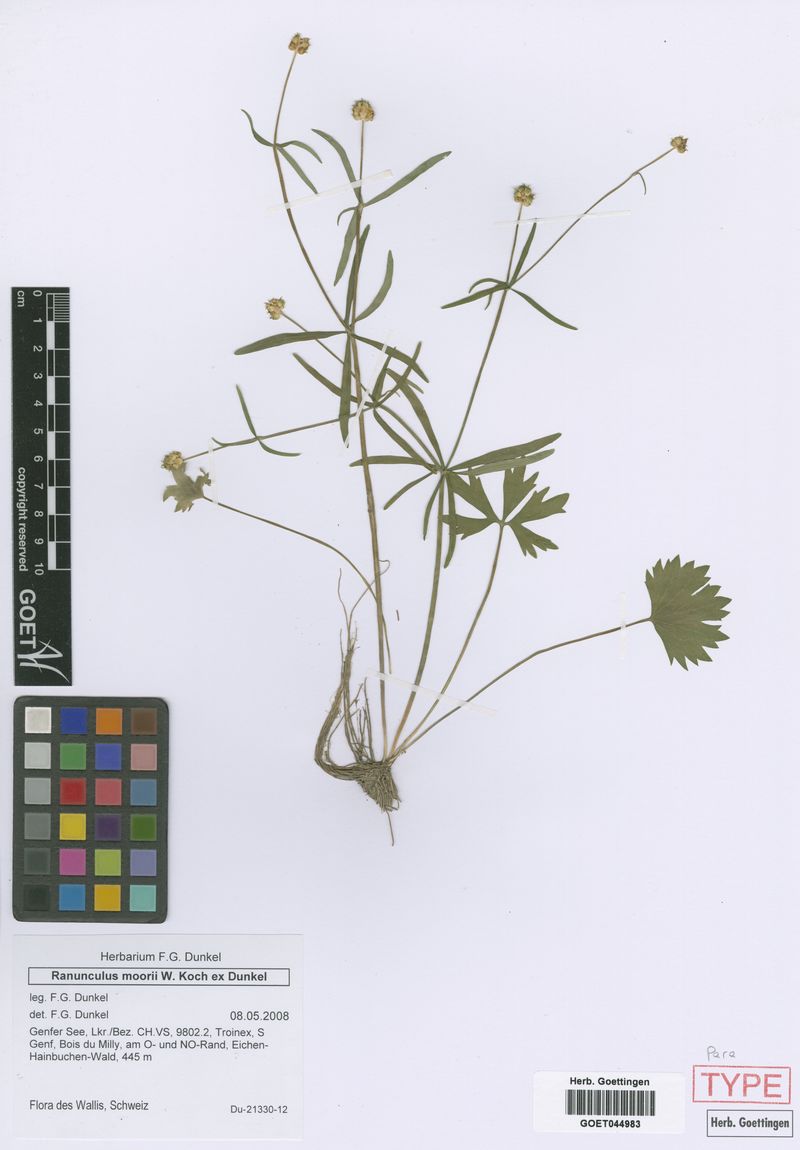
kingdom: Plantae
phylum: Tracheophyta
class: Magnoliopsida
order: Ranunculales
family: Ranunculaceae
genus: Ranunculus
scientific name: Ranunculus moorii
